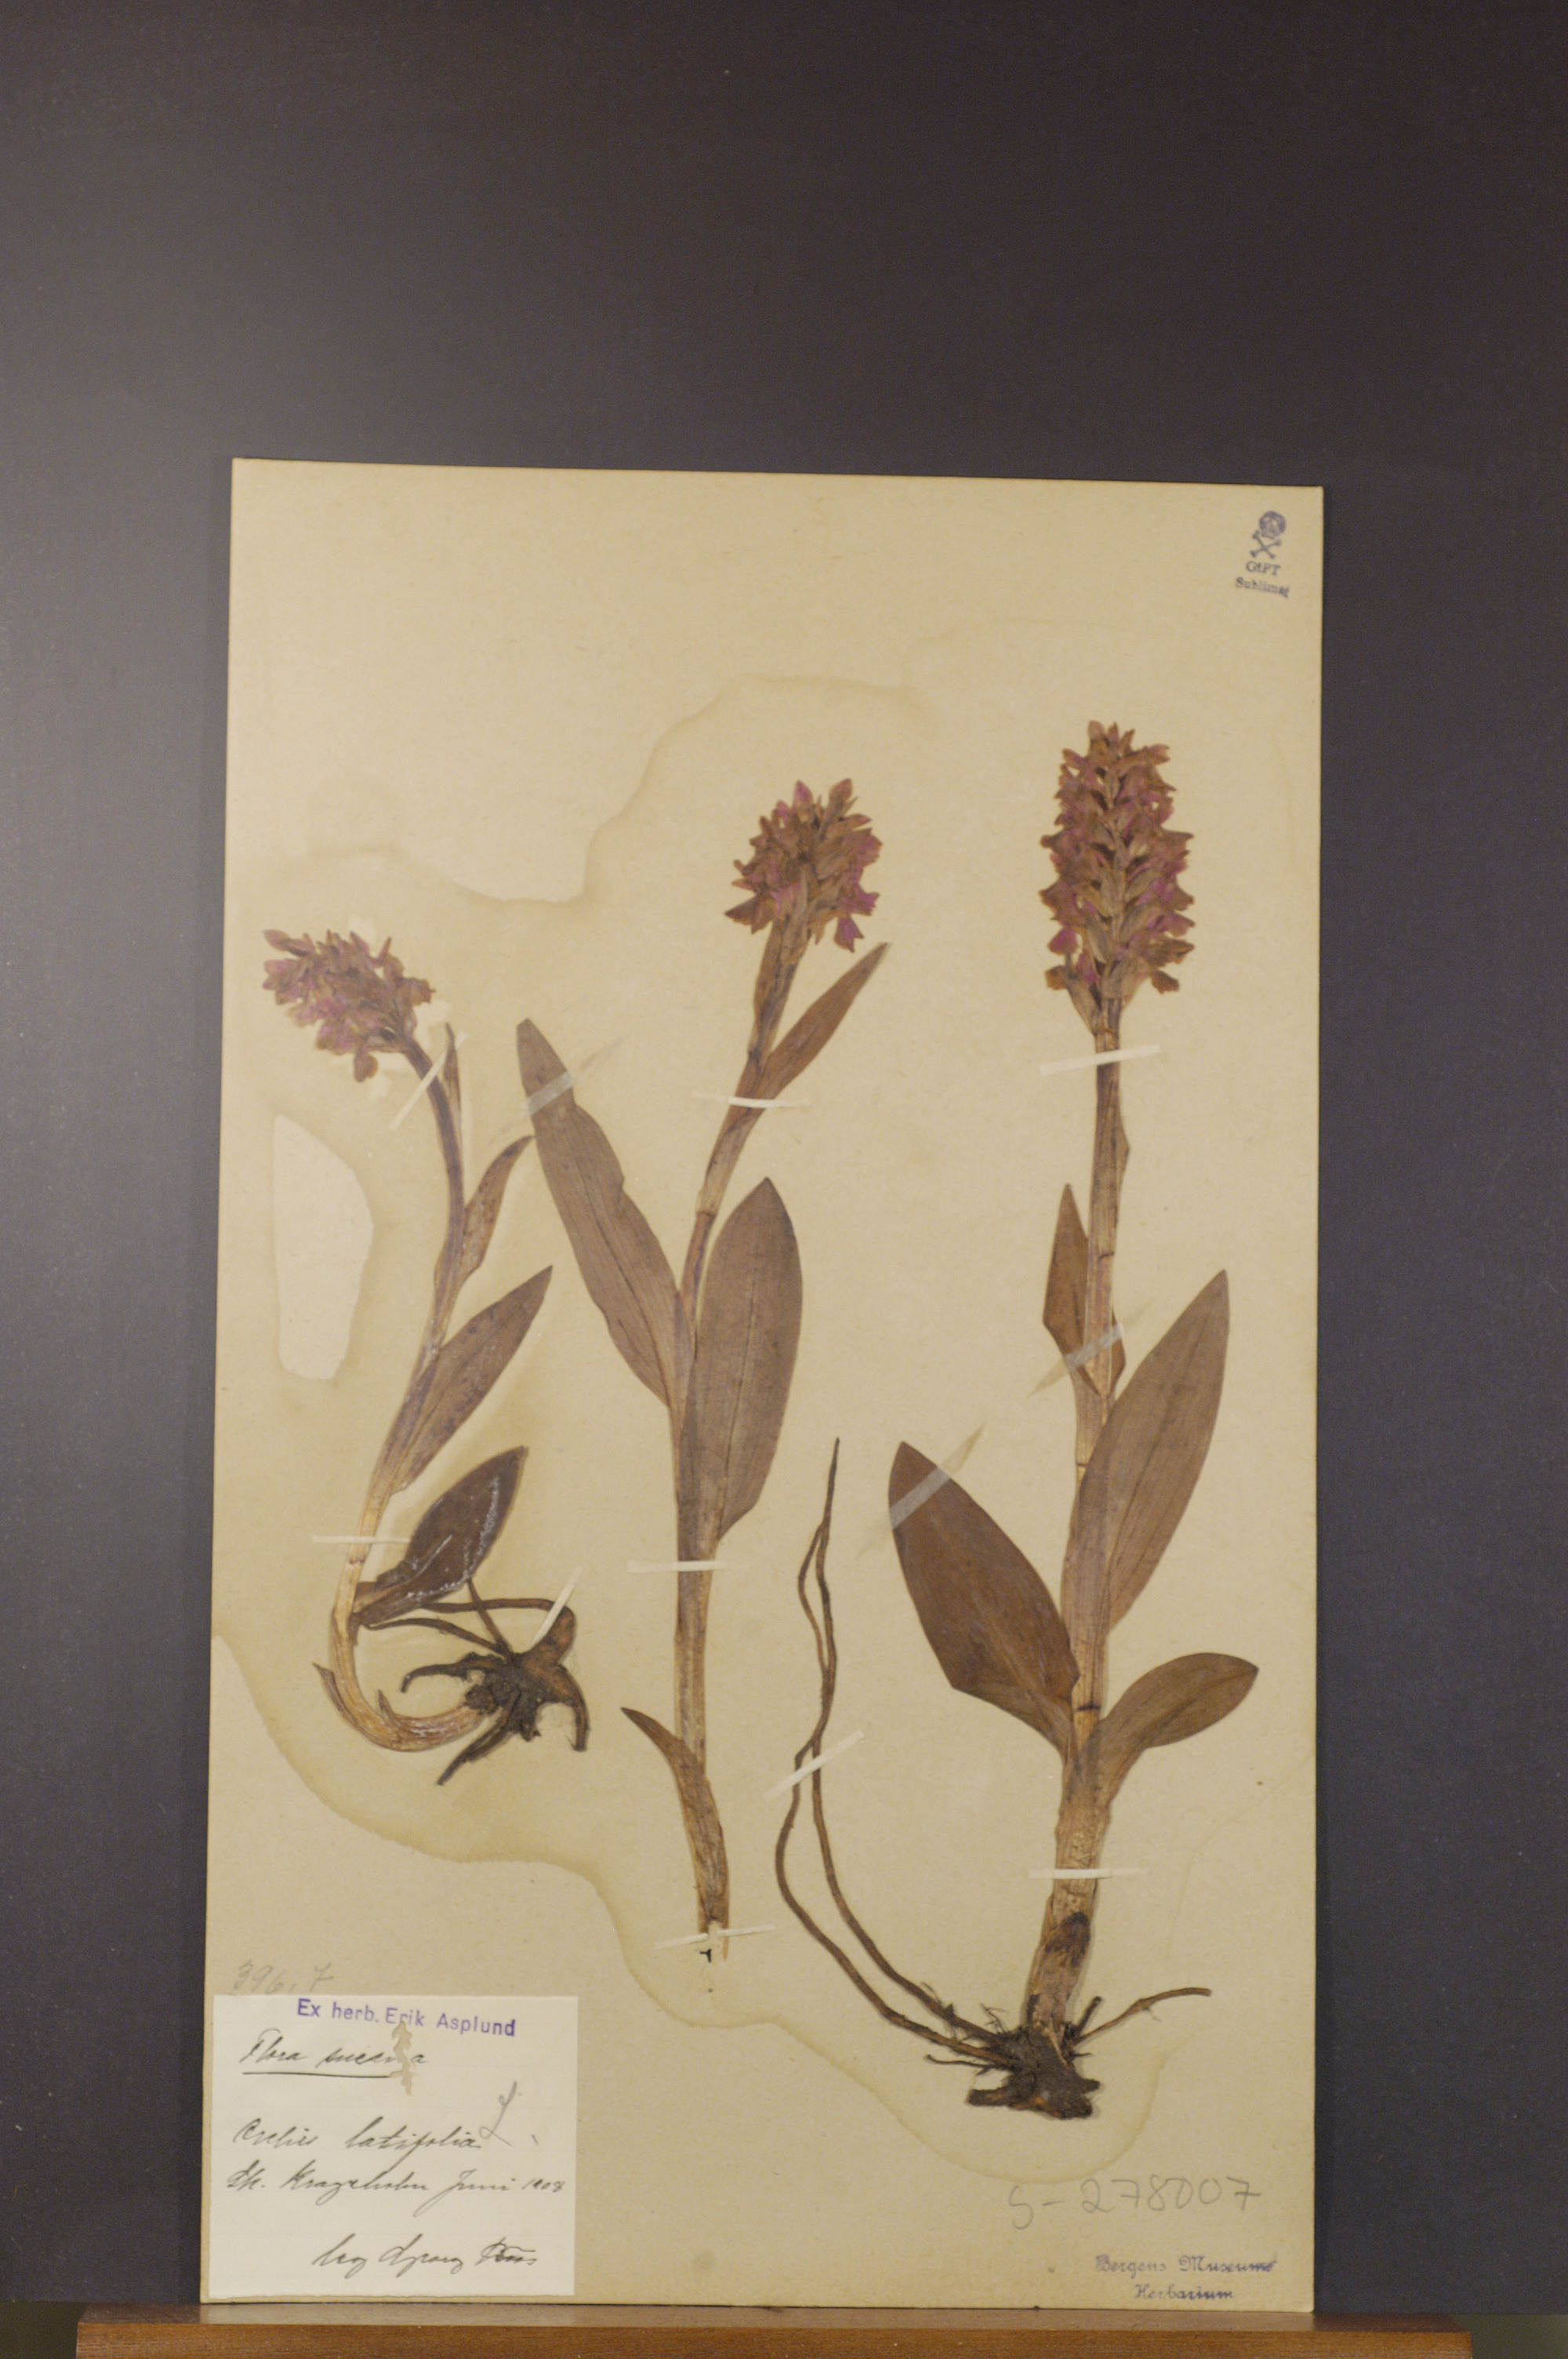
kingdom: Plantae
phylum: Tracheophyta
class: Liliopsida
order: Asparagales
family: Orchidaceae
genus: Dactylorhiza
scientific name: Dactylorhiza incarnata
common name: Early marsh-orchid
